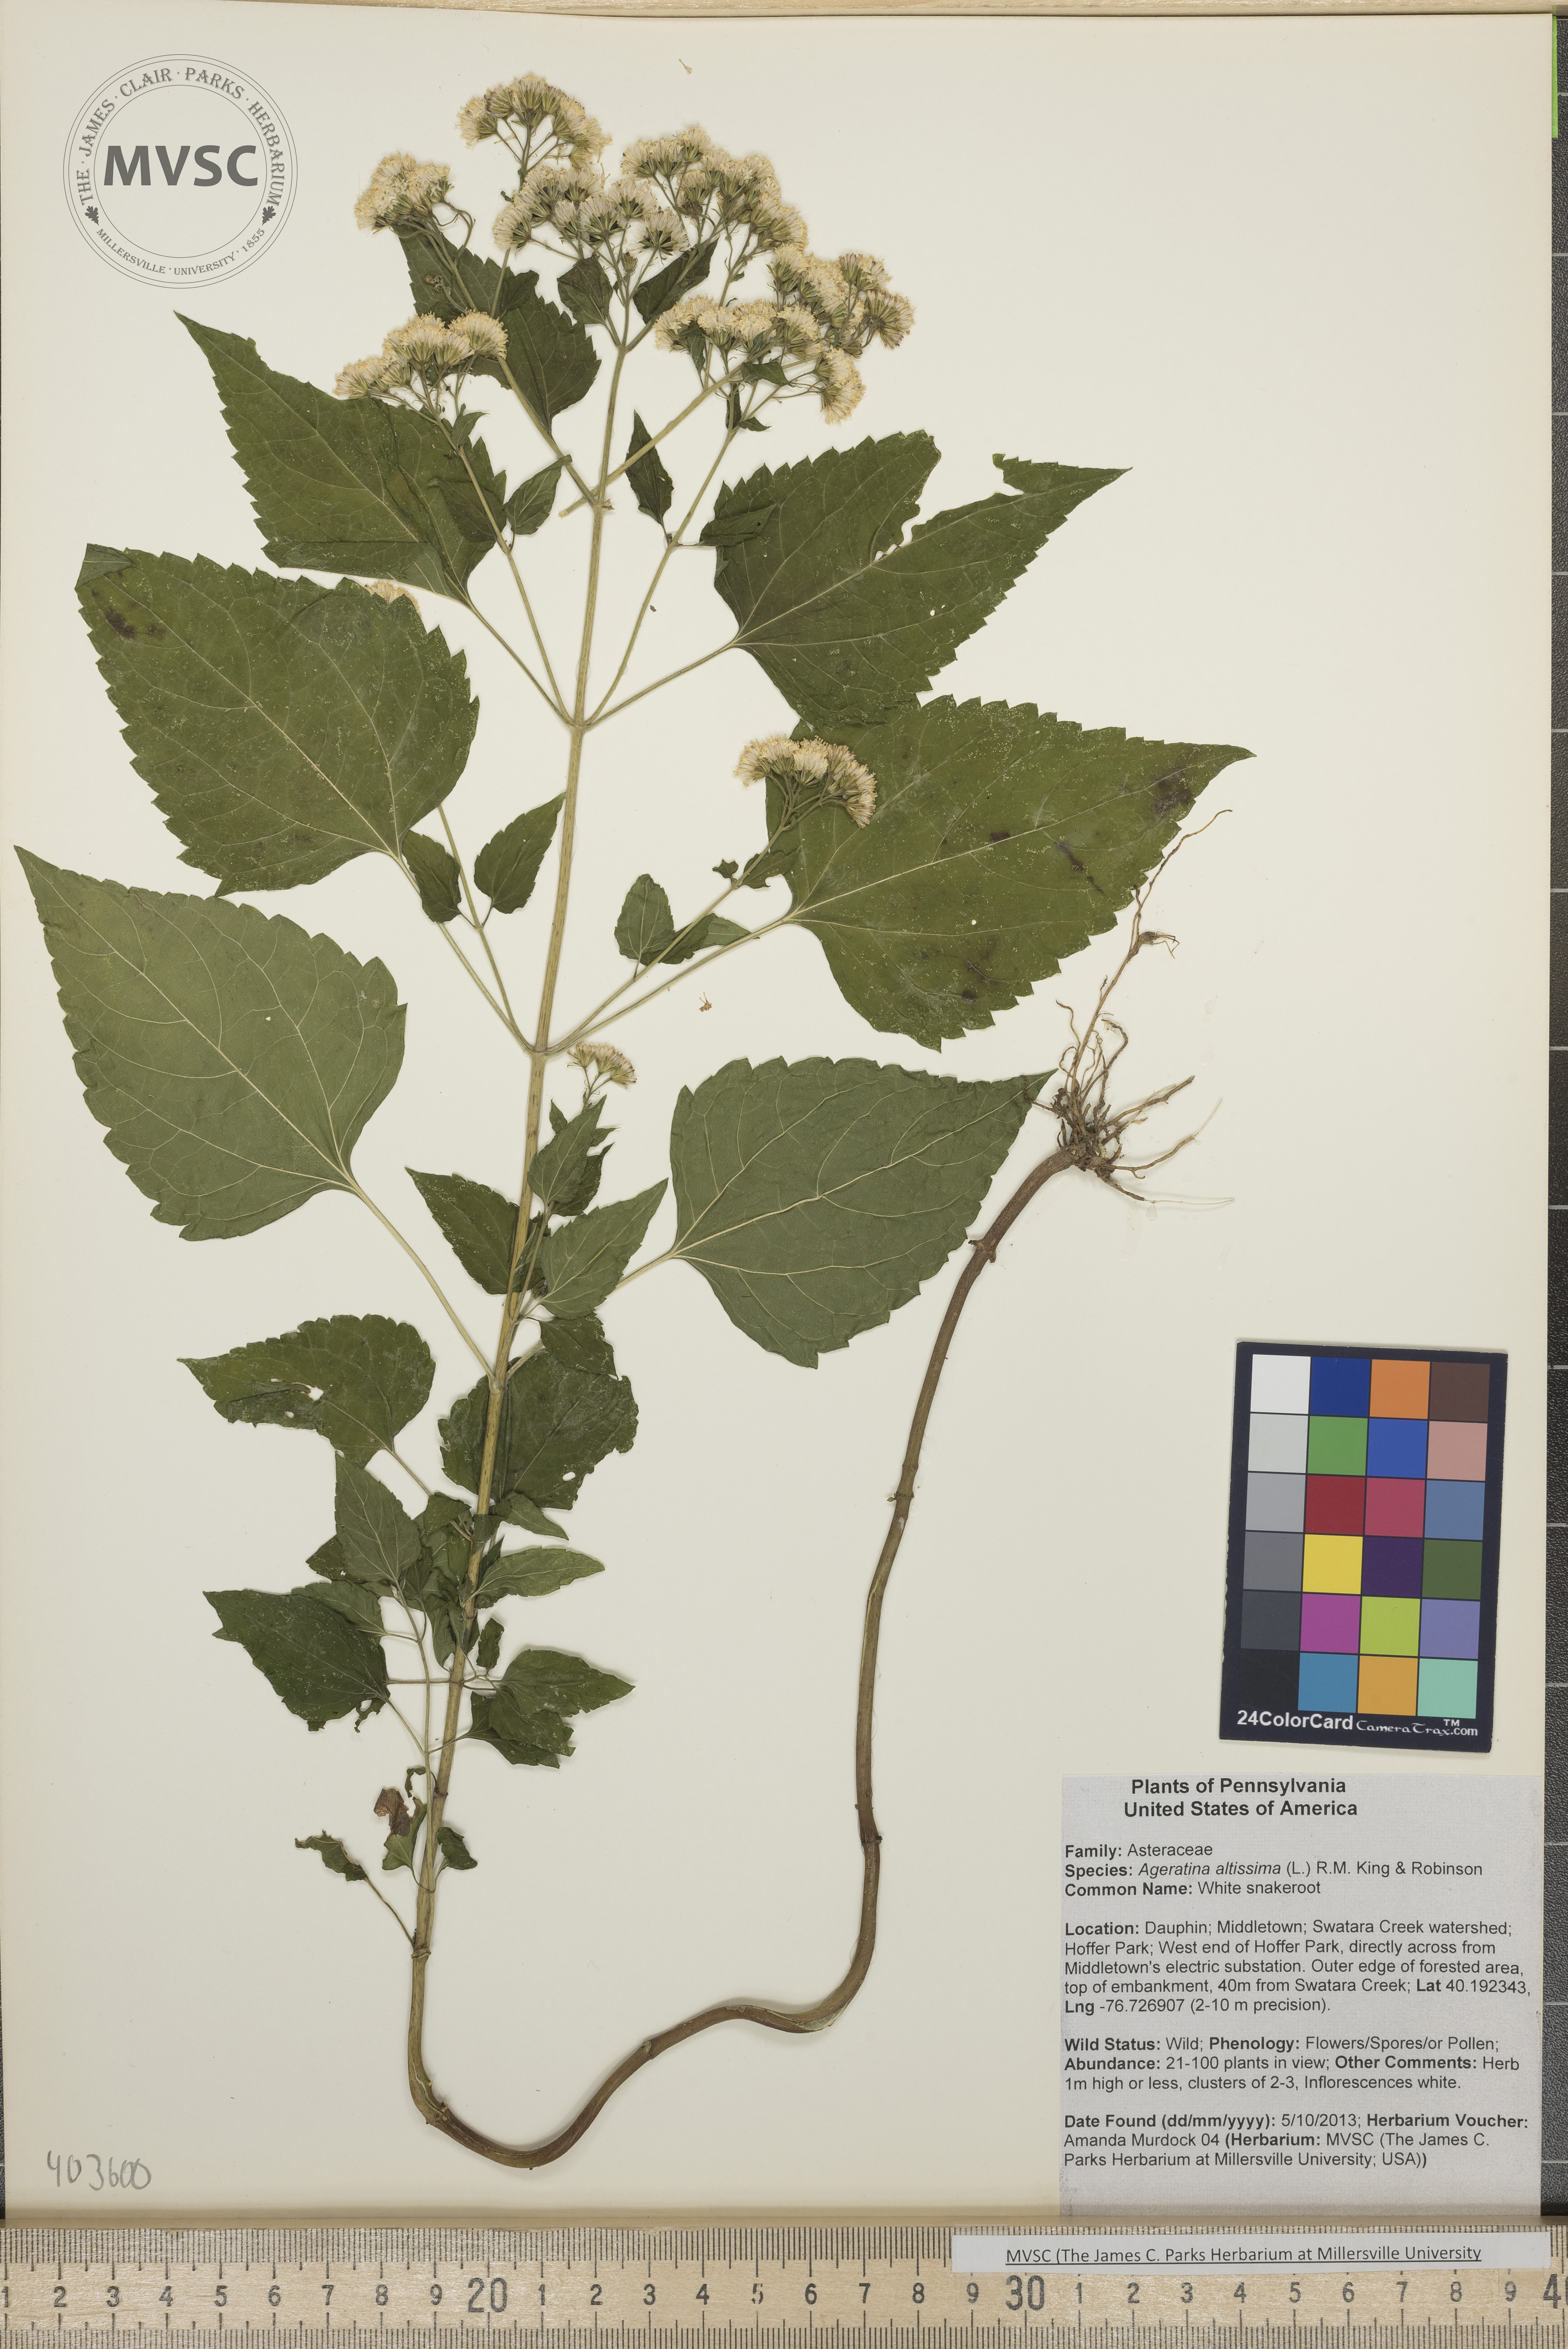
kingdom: Plantae
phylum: Tracheophyta
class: Magnoliopsida
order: Asterales
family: Asteraceae
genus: Ageratina
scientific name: Ageratina altissima
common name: White snakeroot
